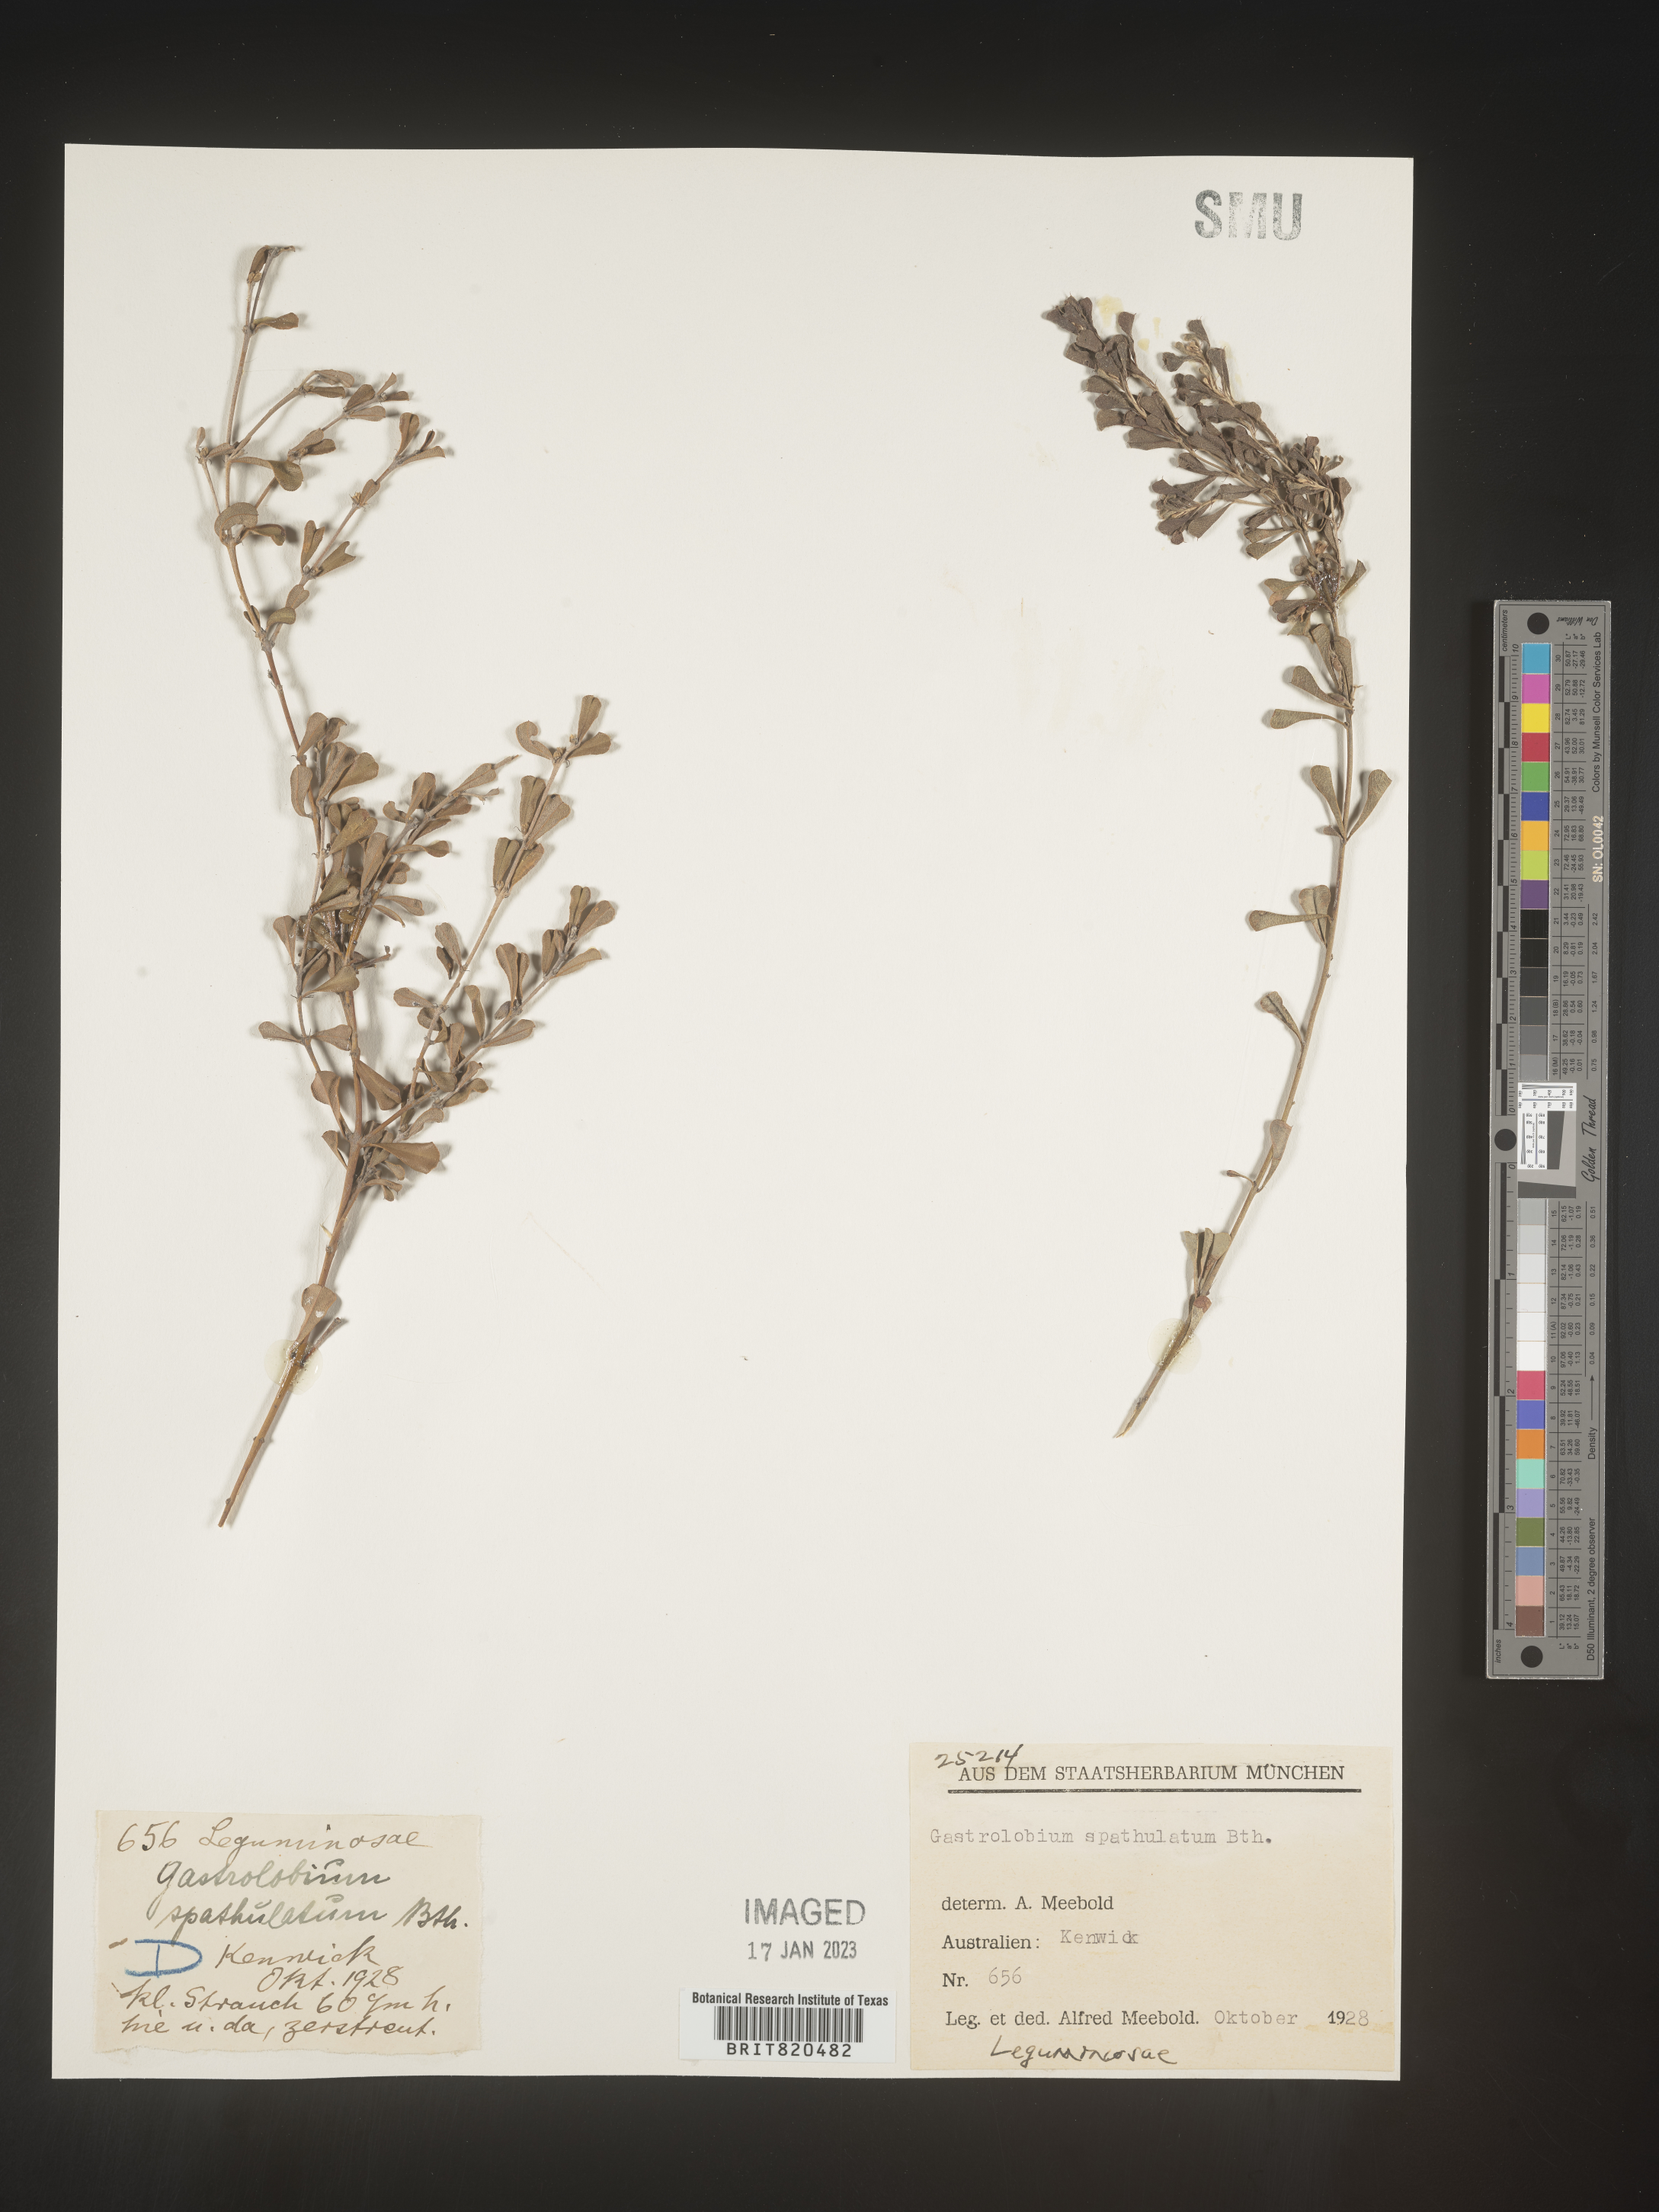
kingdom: Plantae
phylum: Tracheophyta
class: Magnoliopsida
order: Fabales
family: Fabaceae
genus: Gastrolobium
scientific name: Gastrolobium
